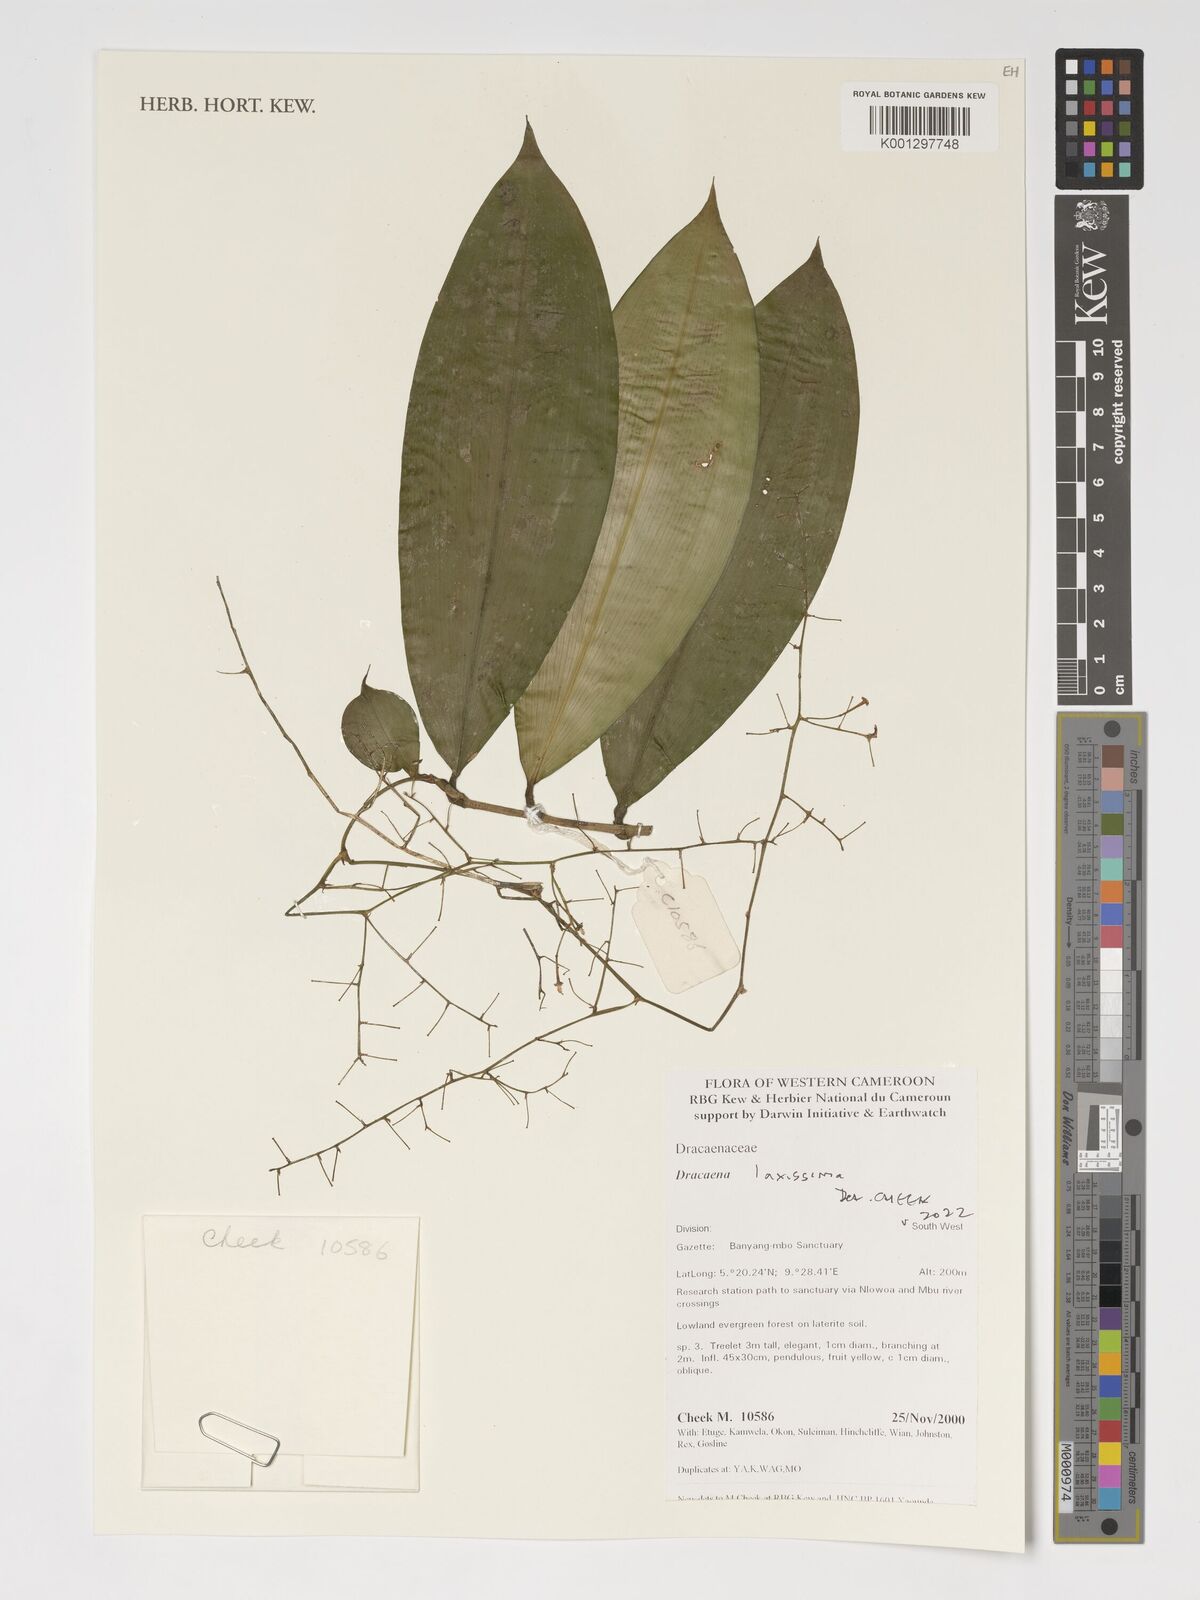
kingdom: Plantae
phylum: Tracheophyta
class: Liliopsida
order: Asparagales
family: Asparagaceae
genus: Dracaena
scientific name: Dracaena laxissima
